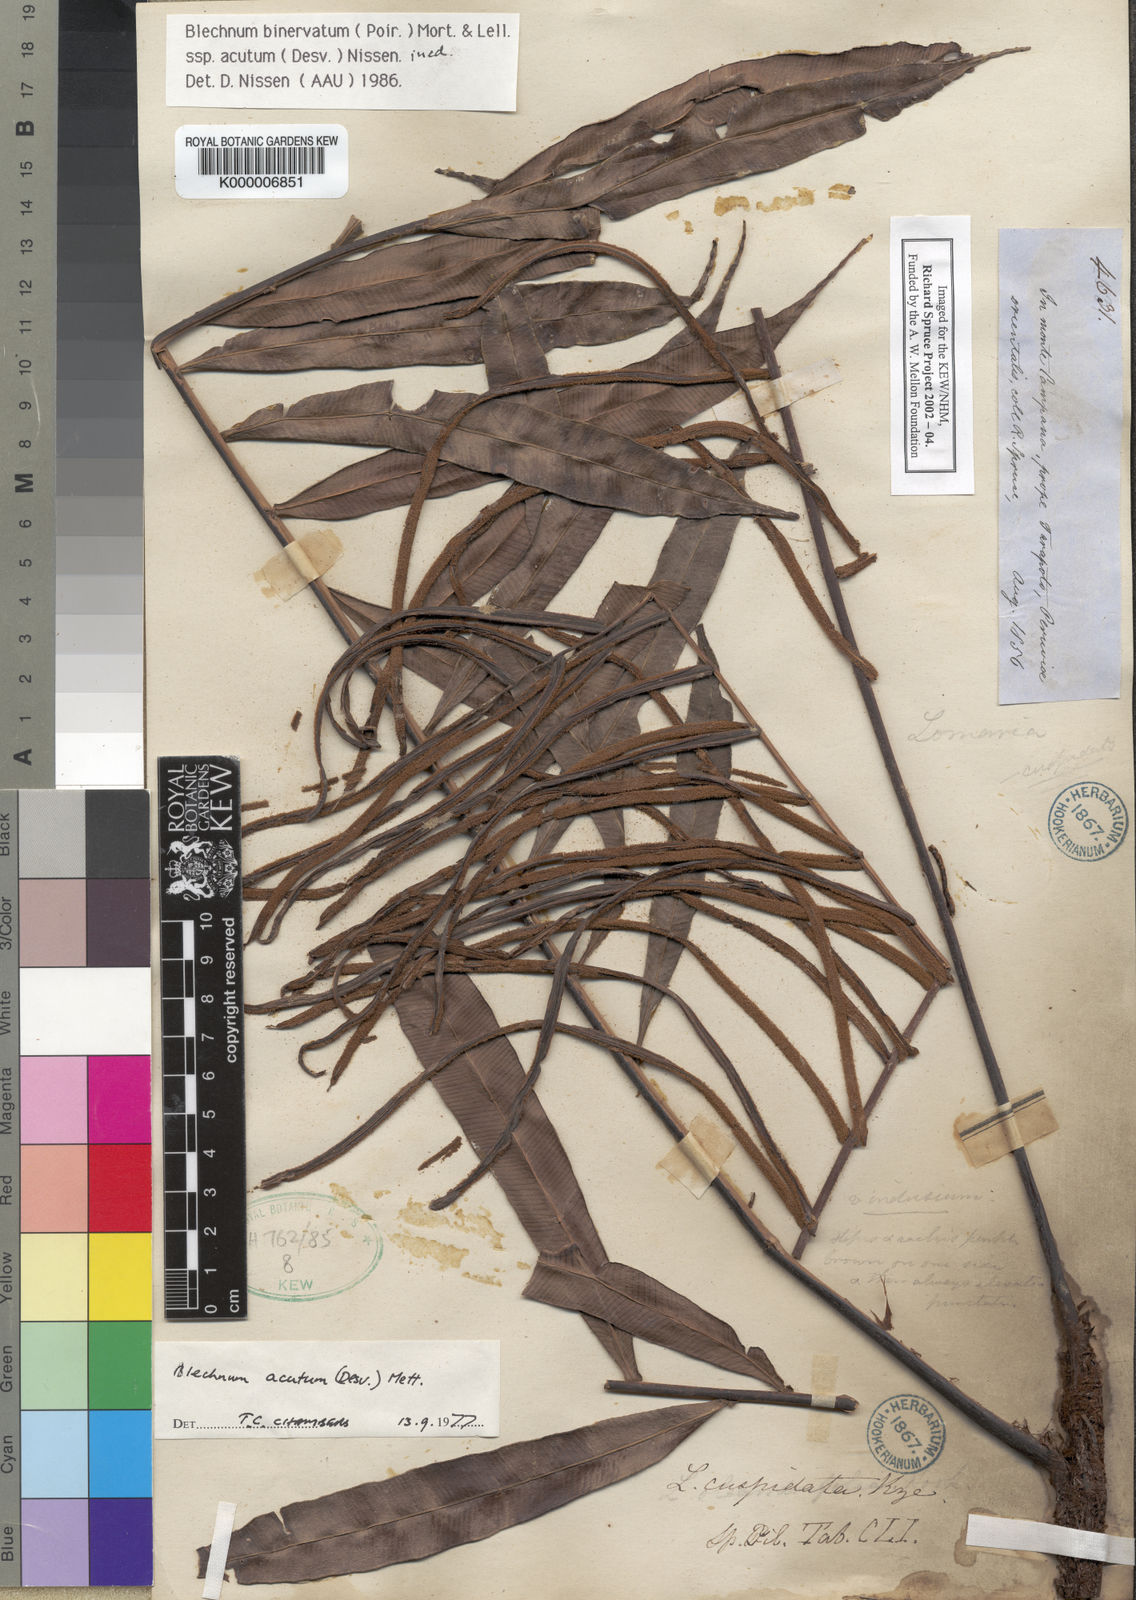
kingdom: Plantae
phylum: Tracheophyta
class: Polypodiopsida
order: Polypodiales
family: Blechnaceae
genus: Lomaridium
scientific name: Lomaridium binervatum
